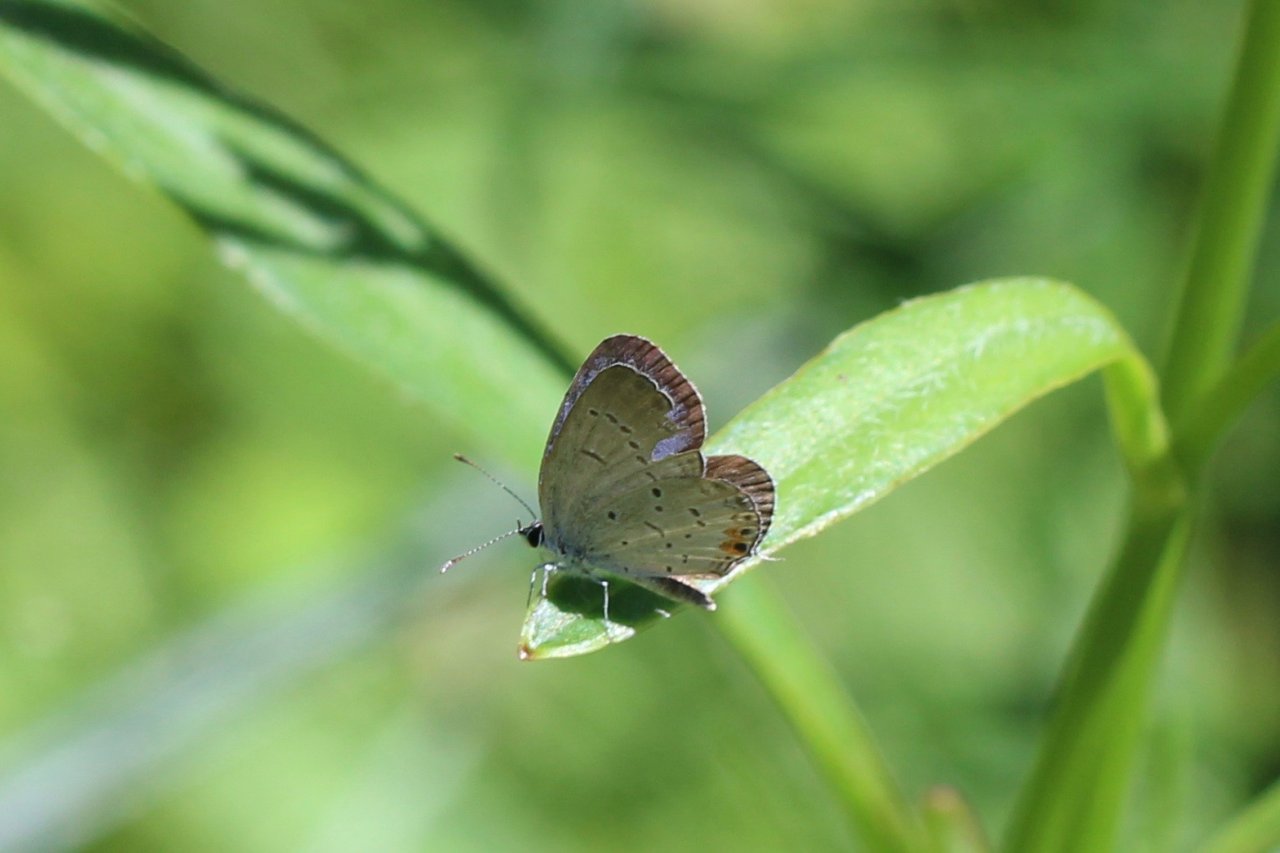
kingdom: Animalia
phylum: Arthropoda
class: Insecta
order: Lepidoptera
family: Lycaenidae
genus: Elkalyce
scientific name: Elkalyce comyntas
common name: Eastern Tailed-Blue
